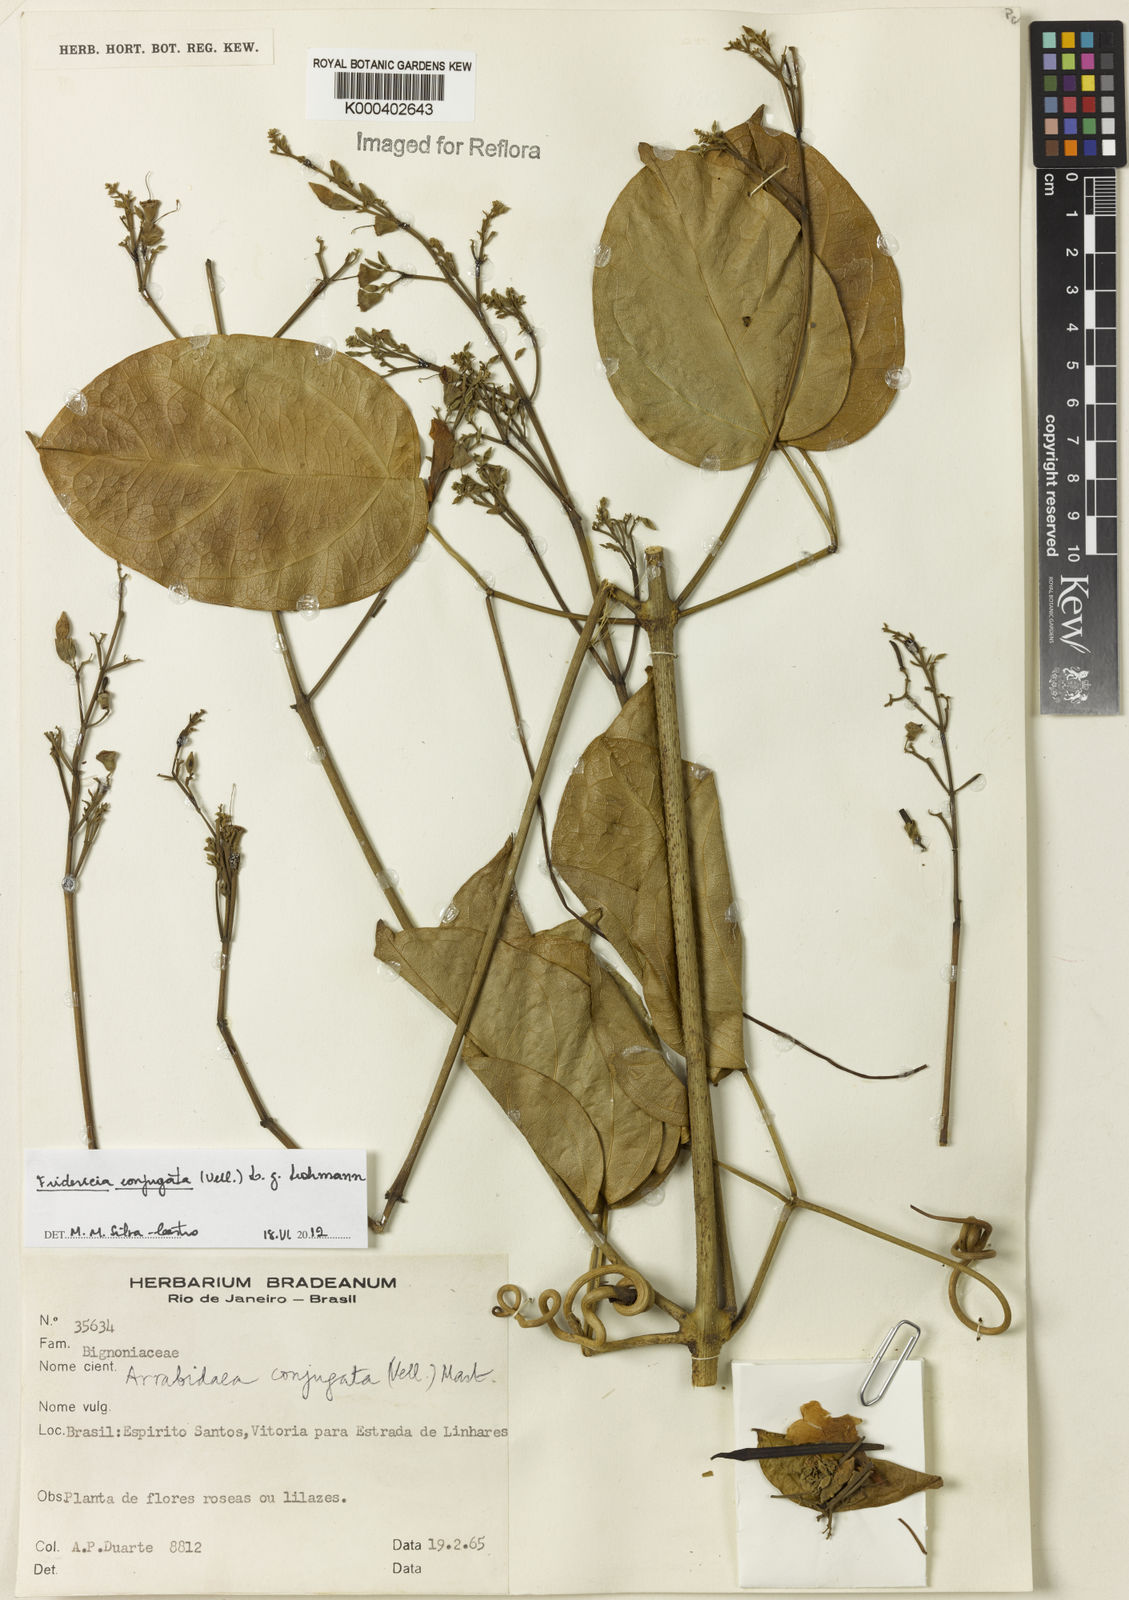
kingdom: Plantae
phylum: Tracheophyta
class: Magnoliopsida
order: Lamiales
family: Bignoniaceae
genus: Fridericia
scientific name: Fridericia conjugata
